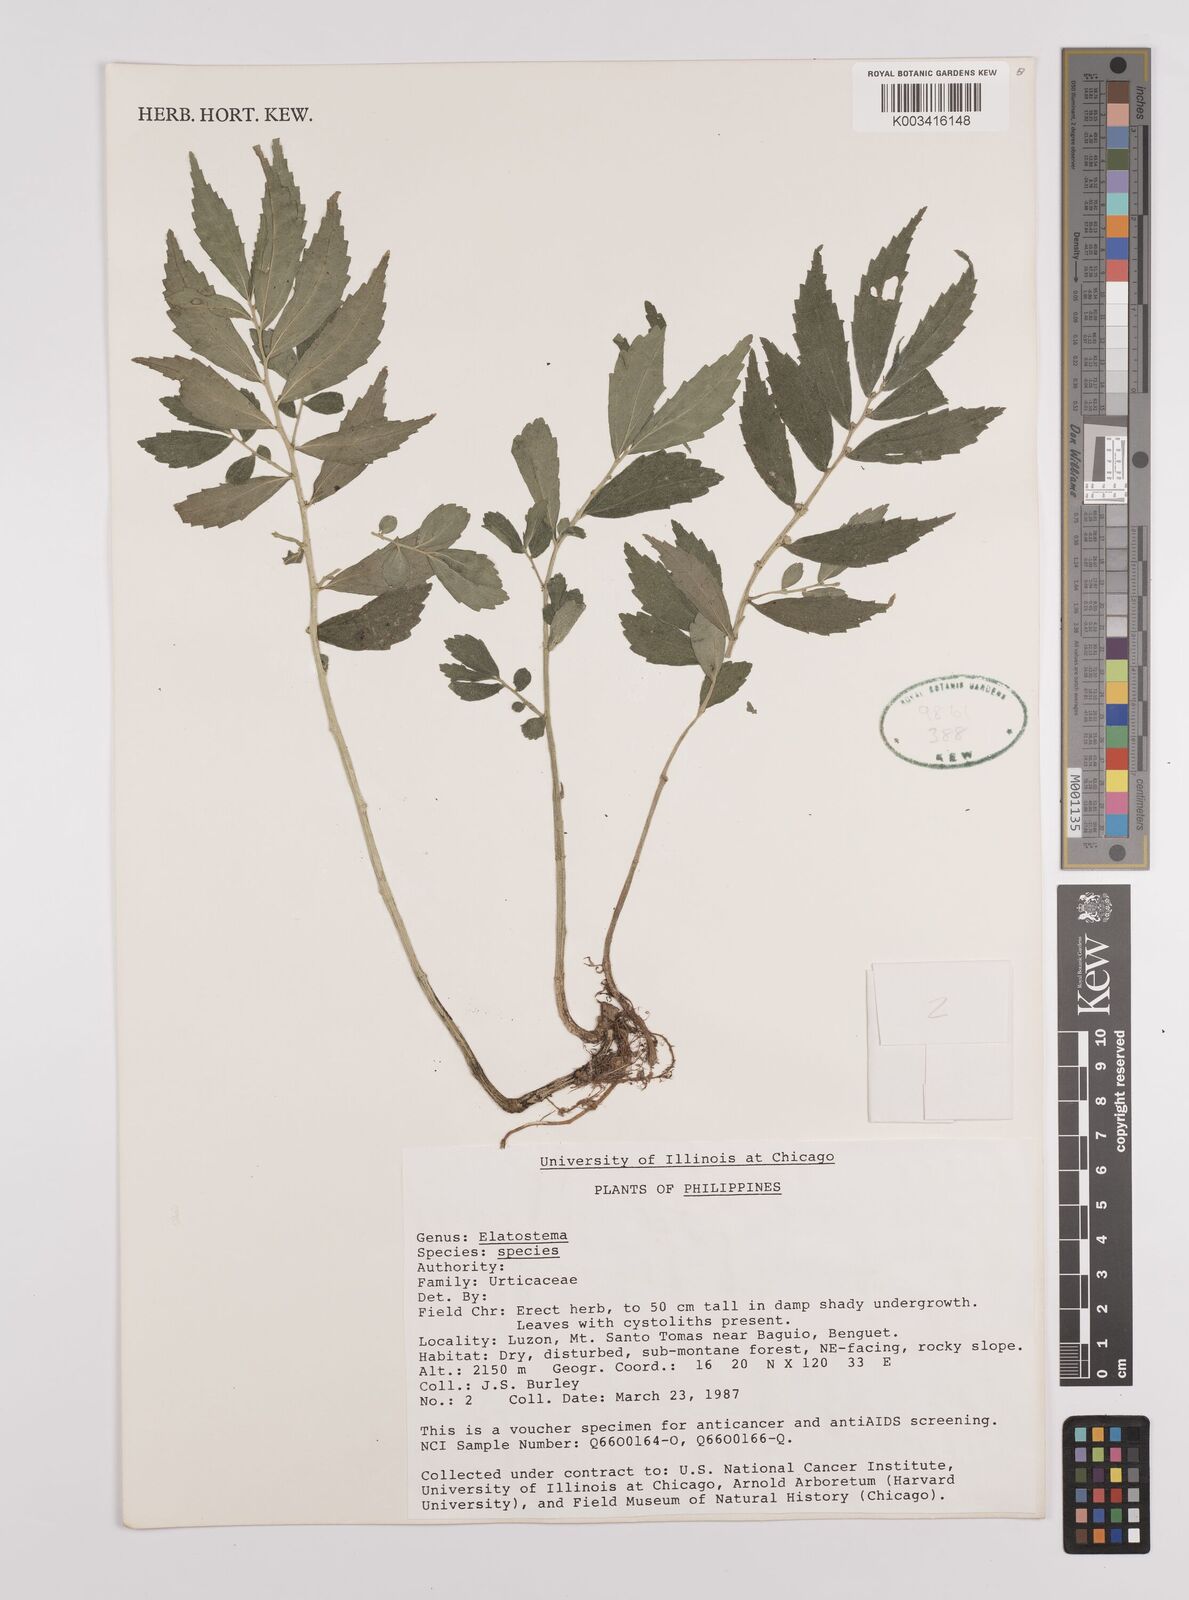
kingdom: Plantae
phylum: Tracheophyta
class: Magnoliopsida
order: Rosales
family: Urticaceae
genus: Elatostema
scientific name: Elatostema
